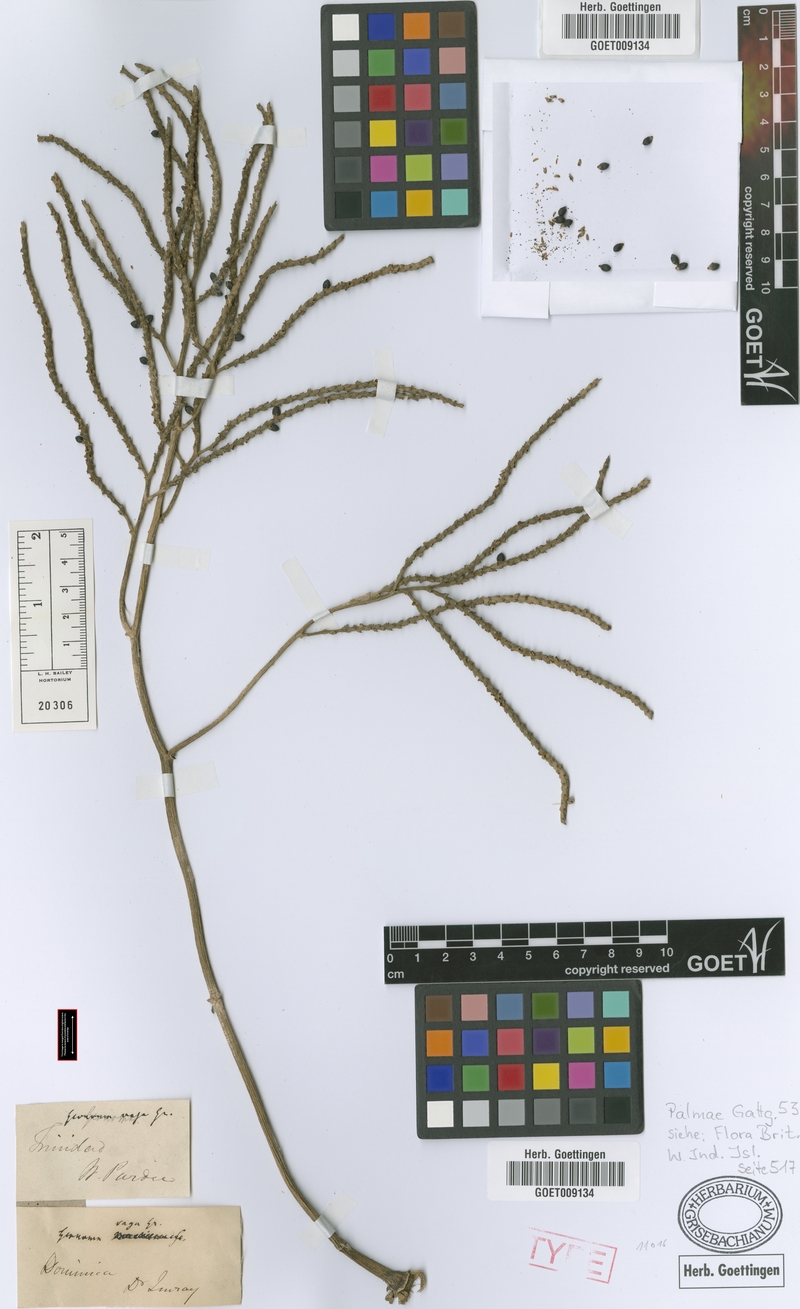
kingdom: Plantae
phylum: Tracheophyta
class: Liliopsida
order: Arecales
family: Arecaceae
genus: Geonoma
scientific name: Geonoma pinnatifrons
